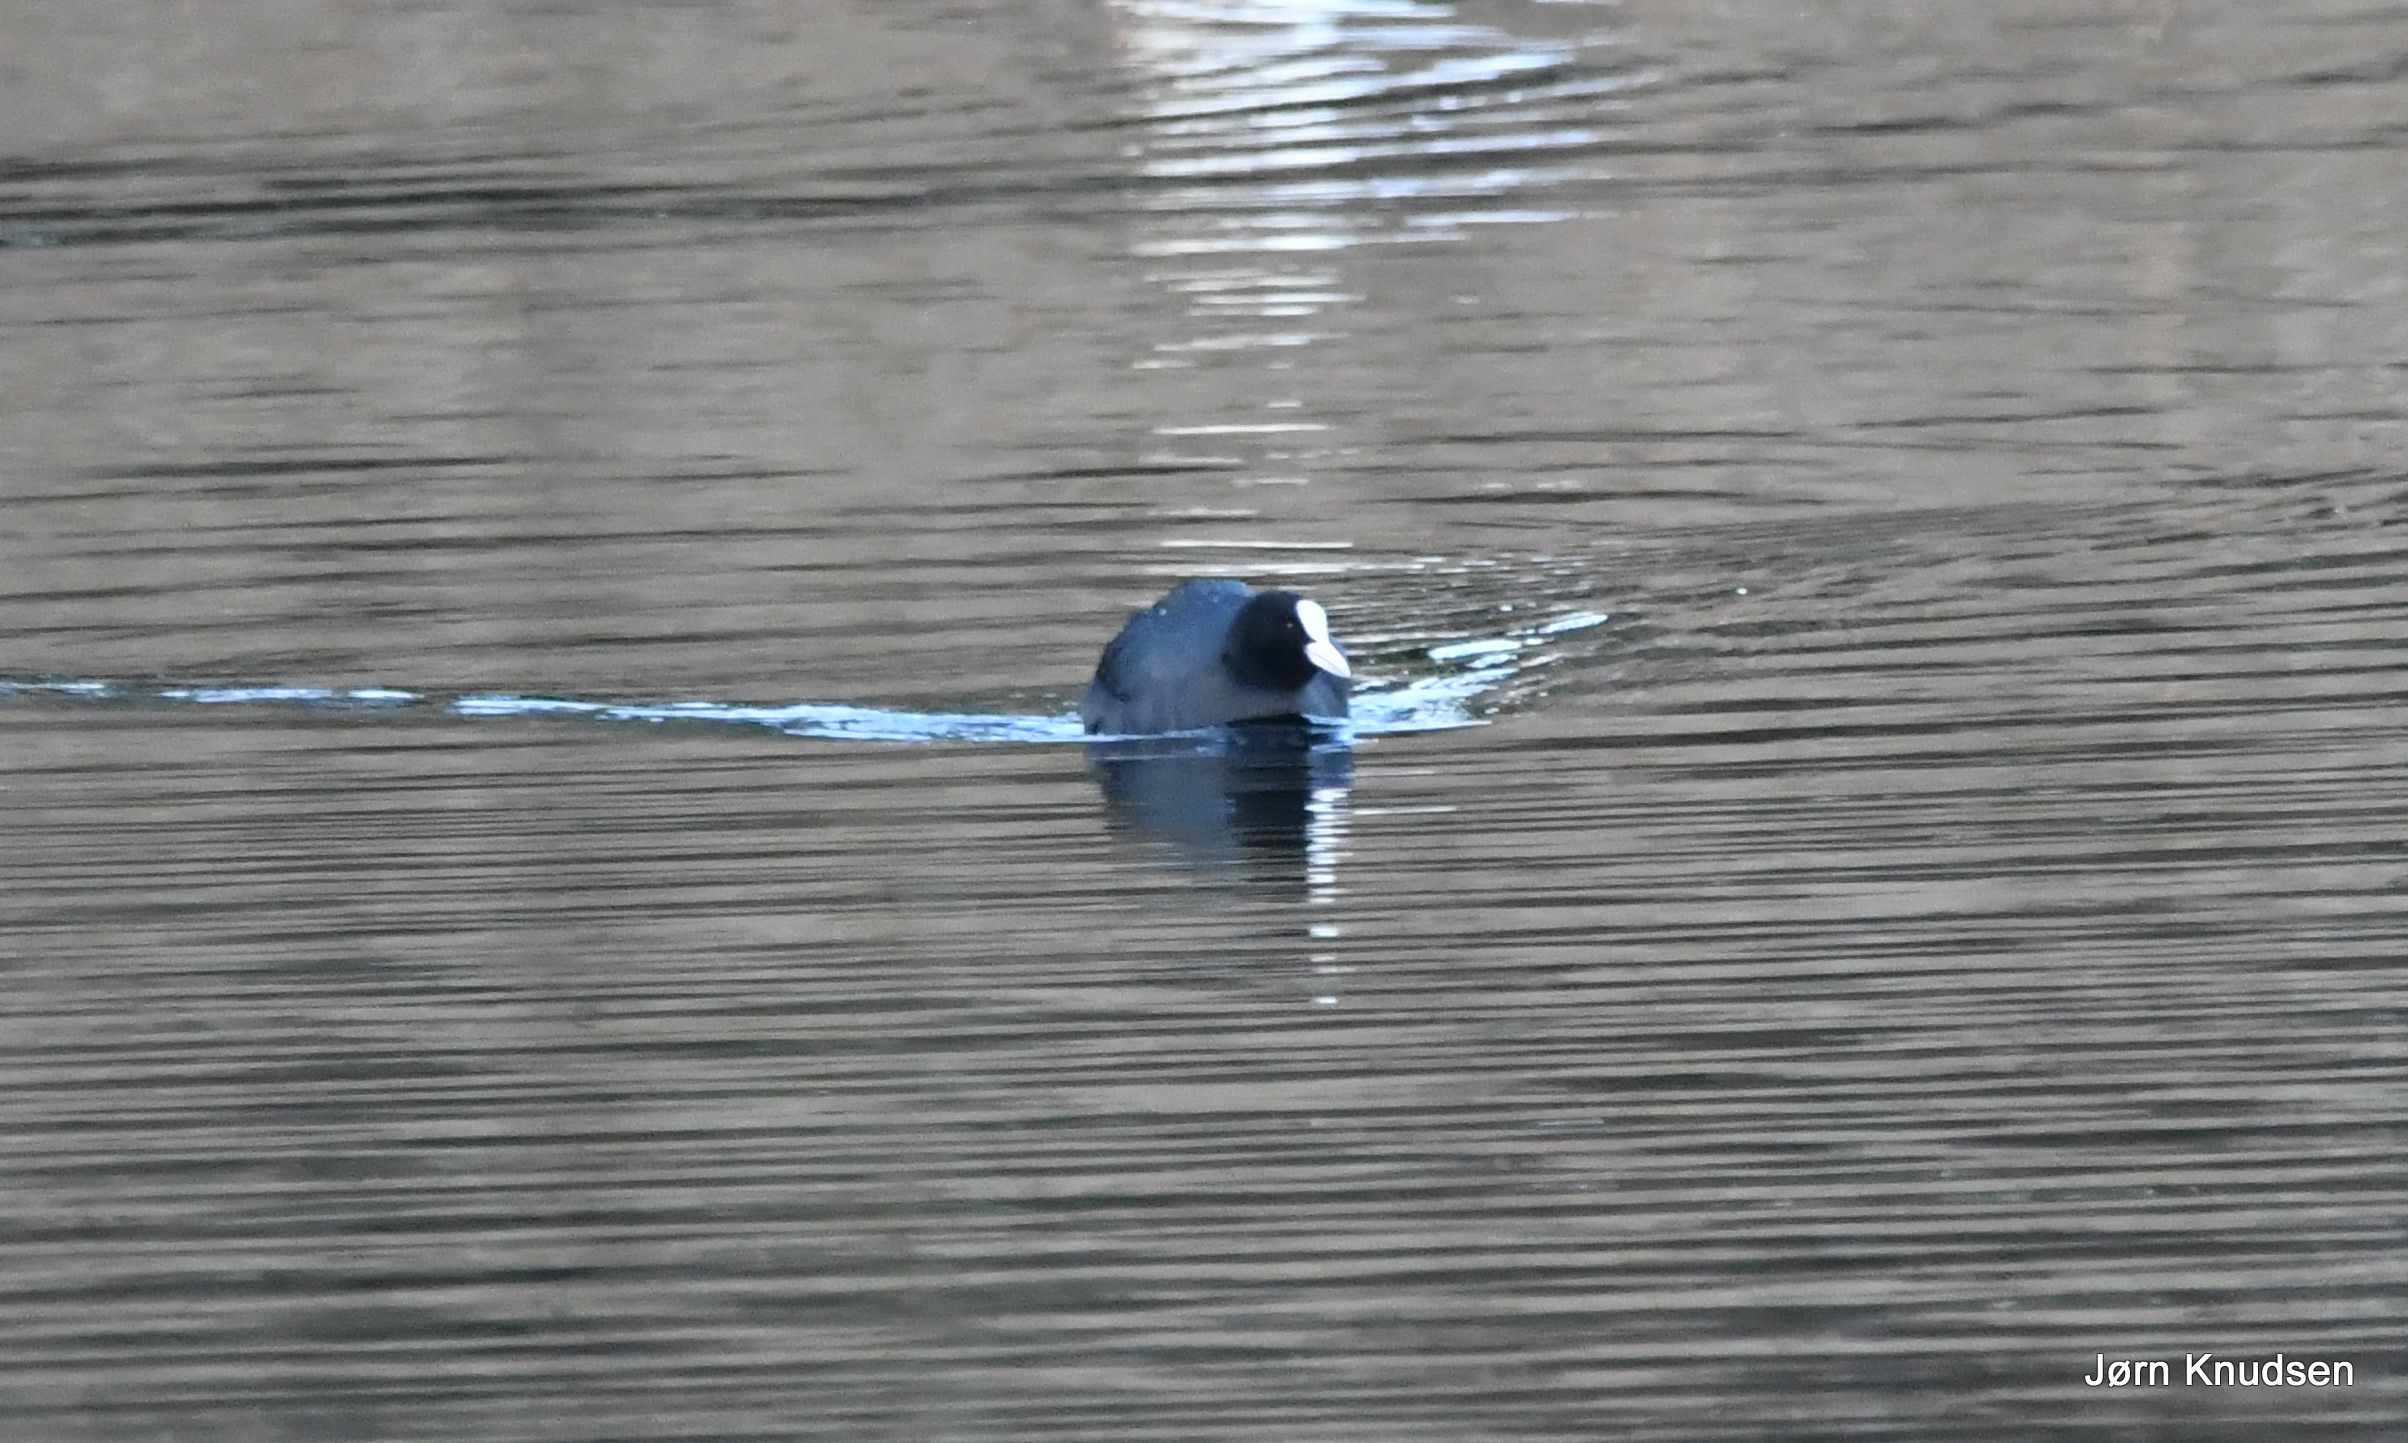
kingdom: Animalia
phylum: Chordata
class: Aves
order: Gruiformes
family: Rallidae
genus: Fulica
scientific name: Fulica atra
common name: Blishøne
